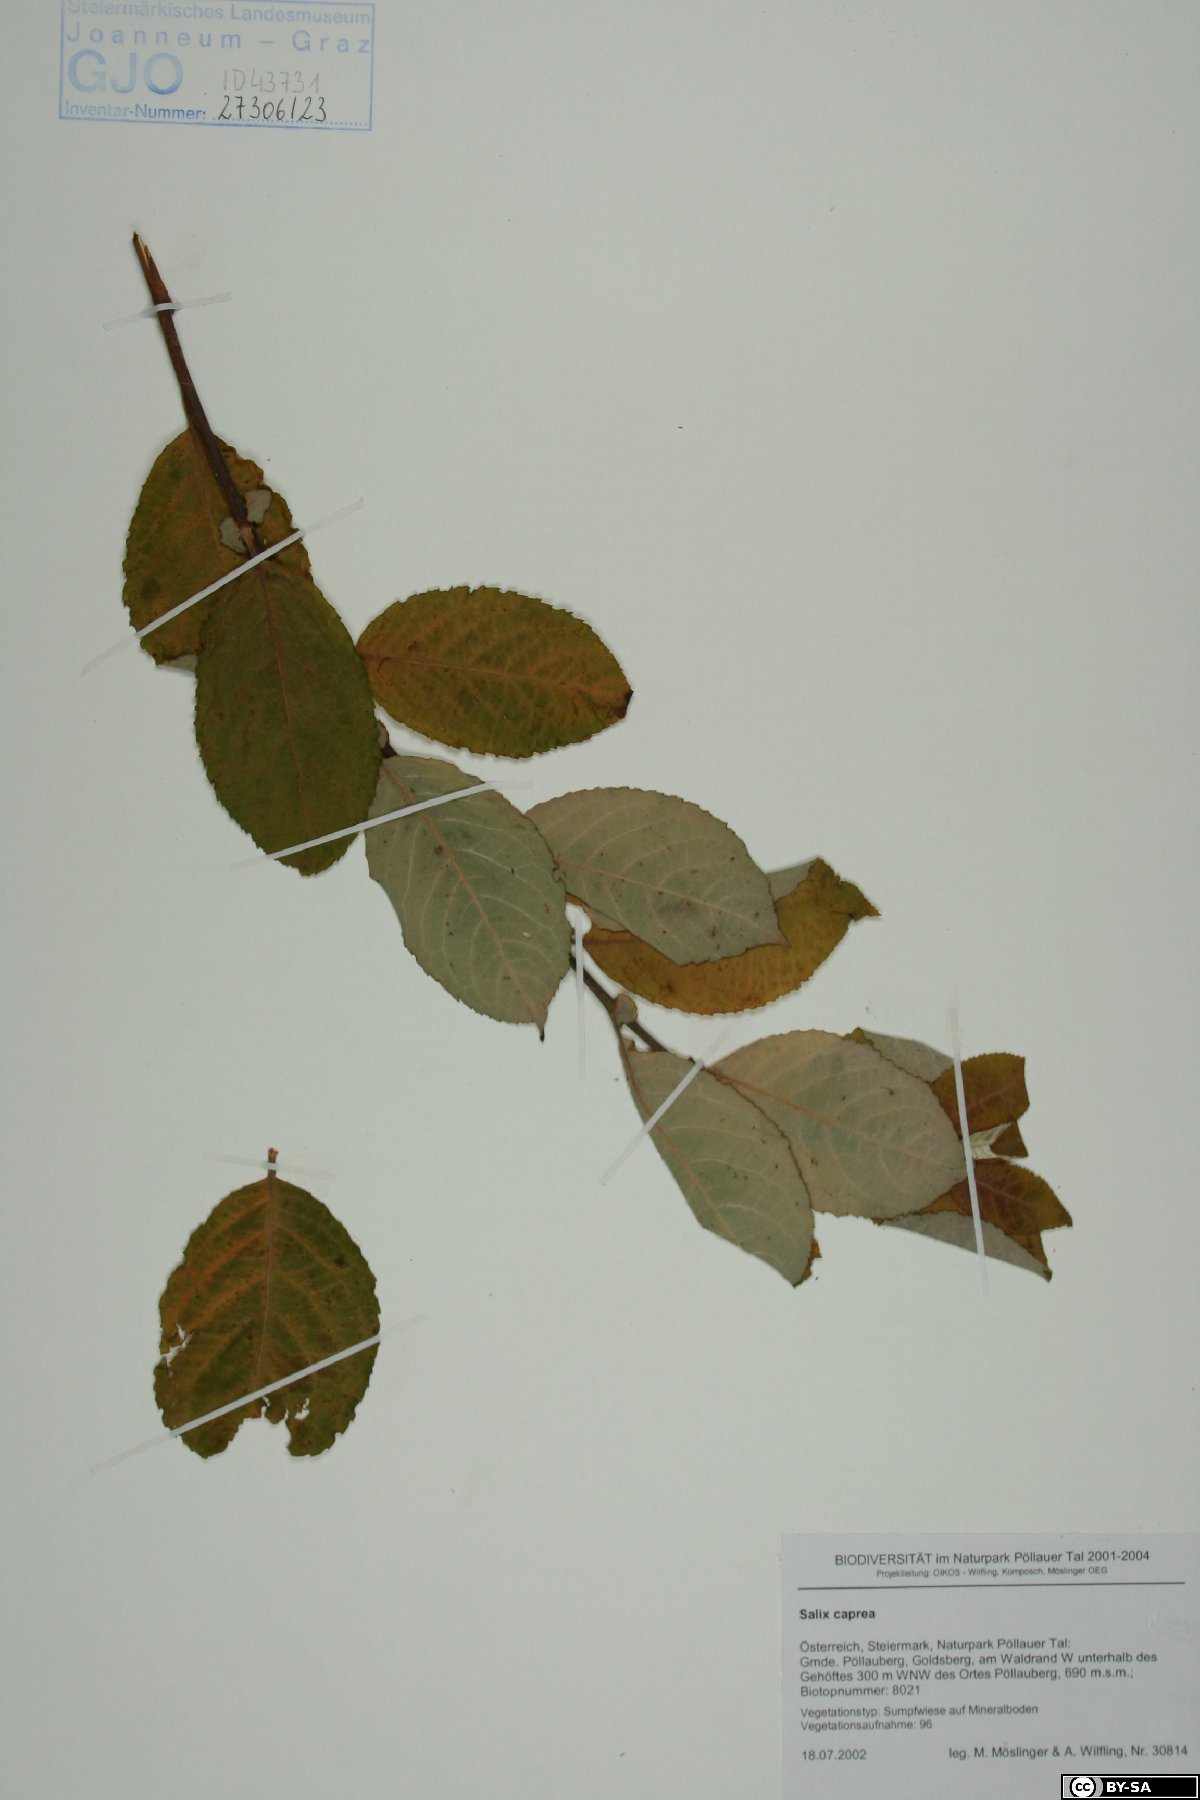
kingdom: Plantae
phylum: Tracheophyta
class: Magnoliopsida
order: Malpighiales
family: Salicaceae
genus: Salix
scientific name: Salix caprea
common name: Goat willow
